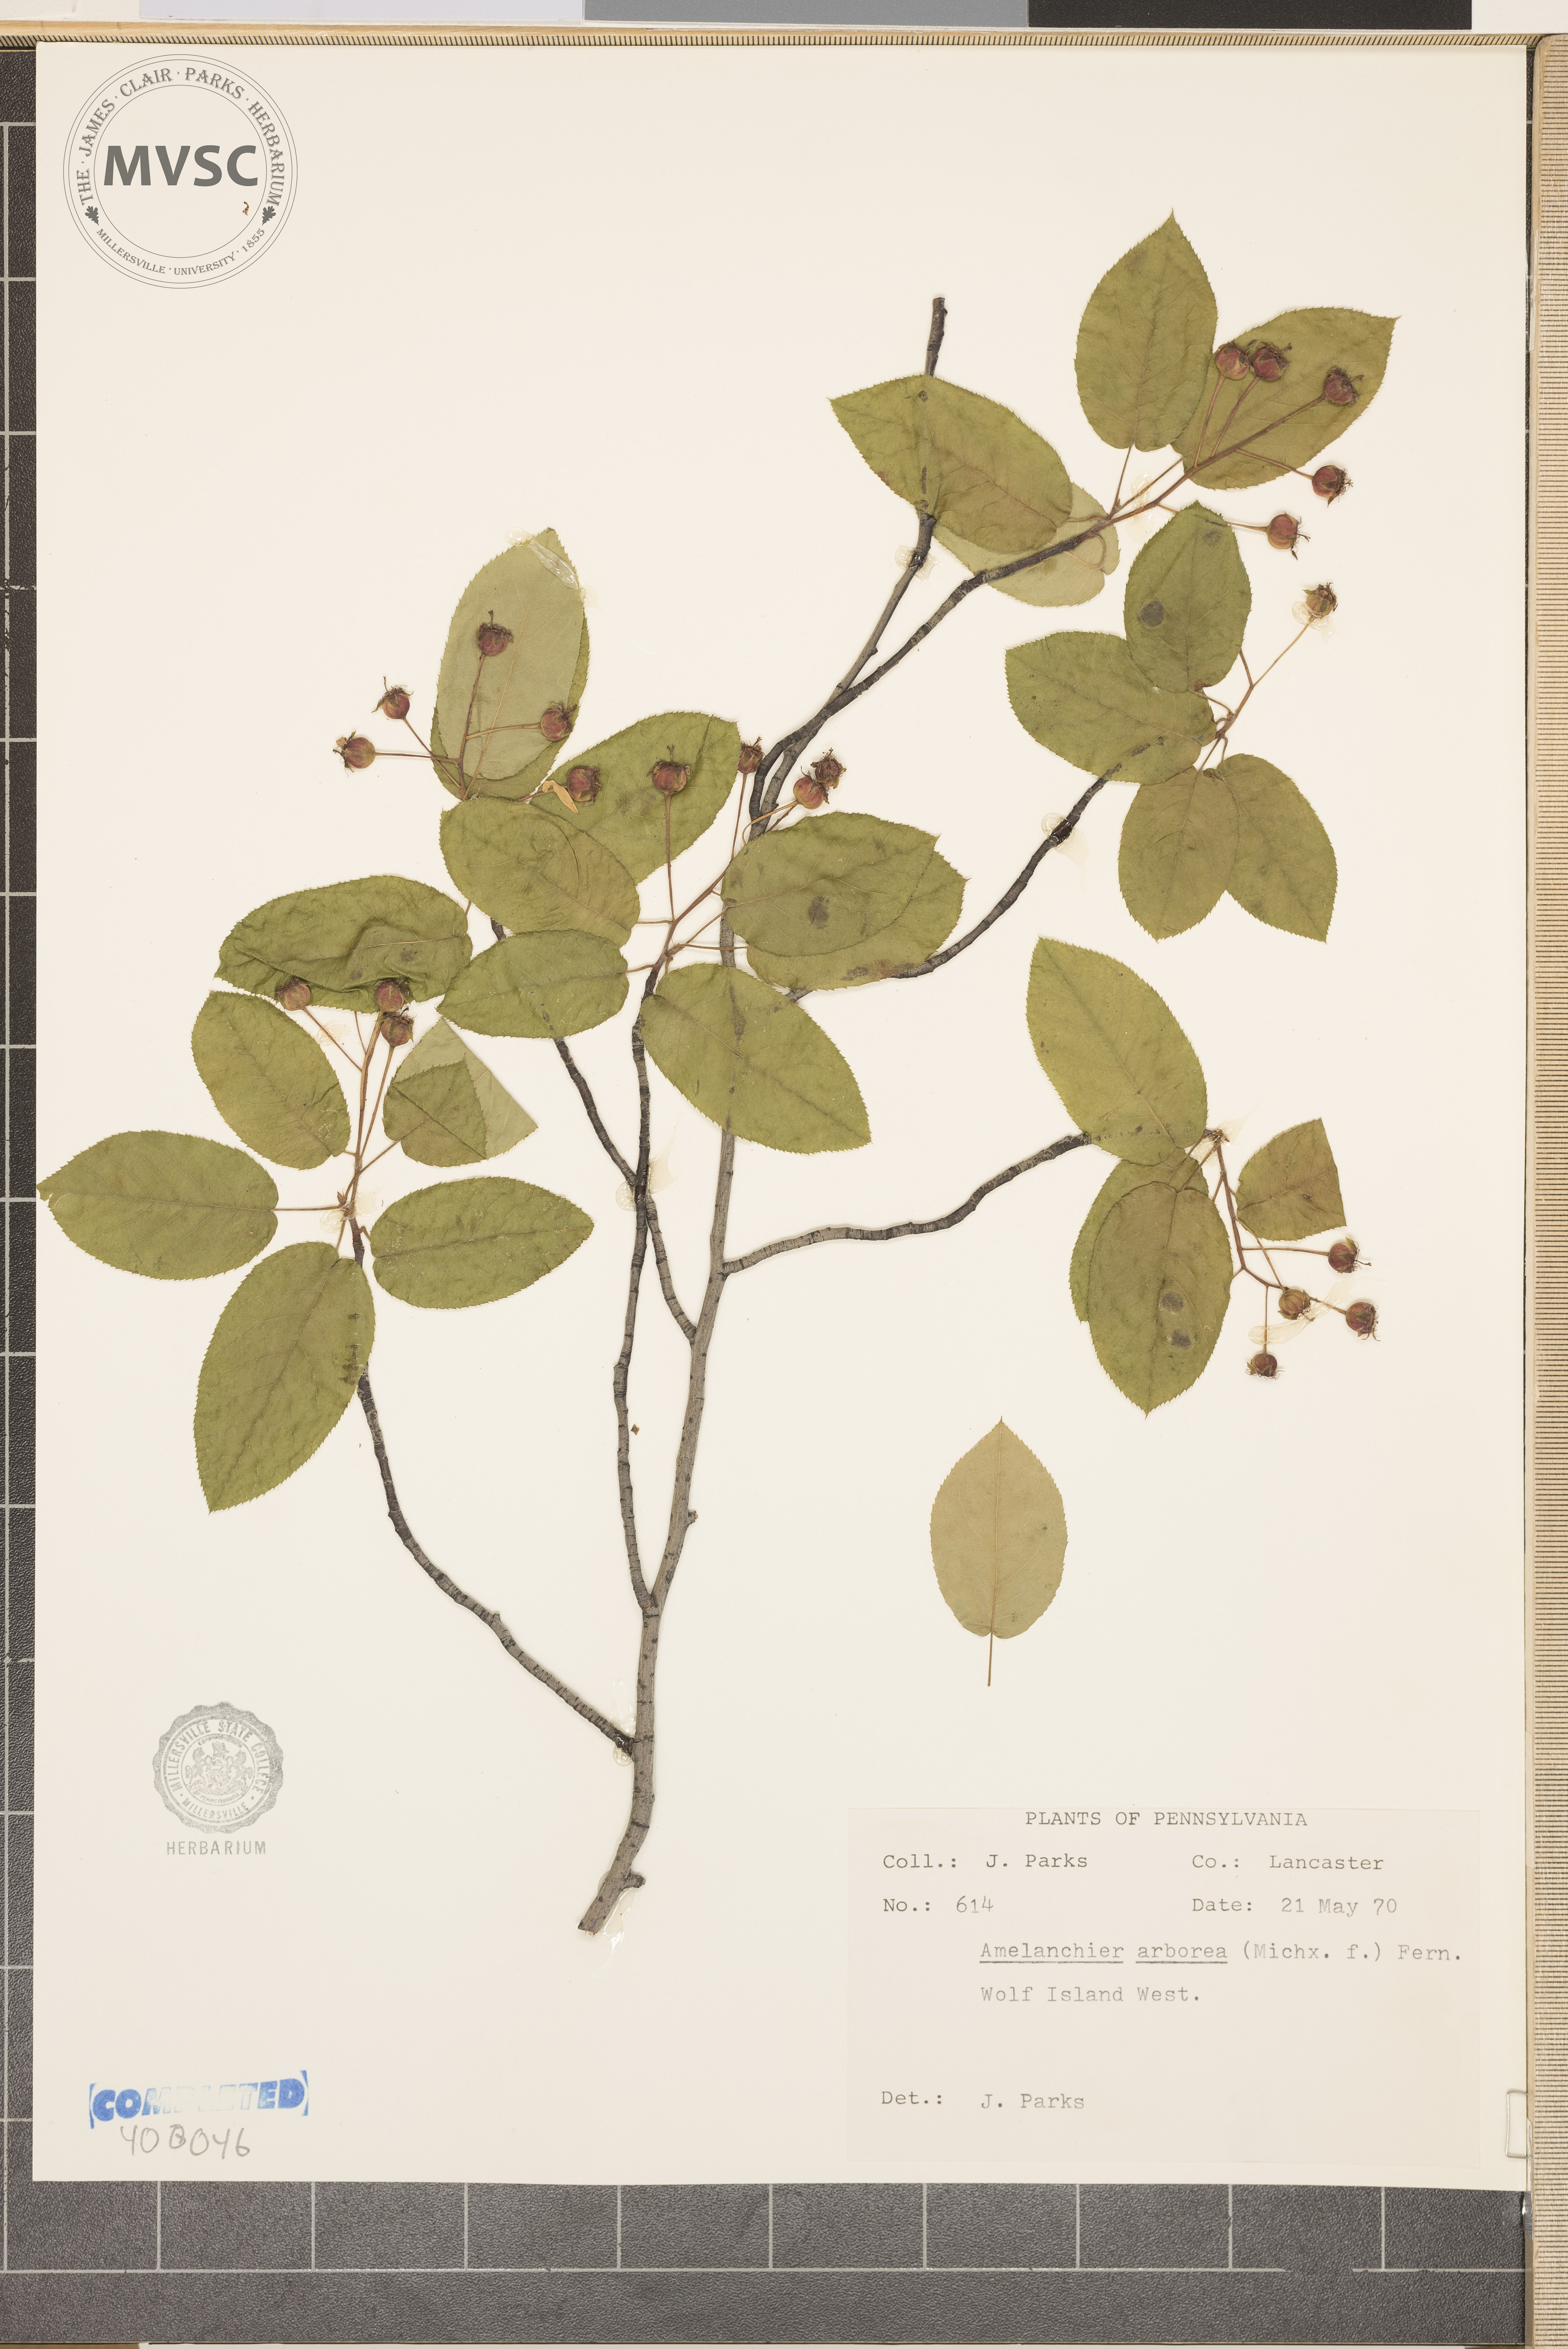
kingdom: Plantae
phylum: Tracheophyta
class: Magnoliopsida
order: Rosales
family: Rosaceae
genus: Amelanchier
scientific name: Amelanchier arborea
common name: serviceberry
